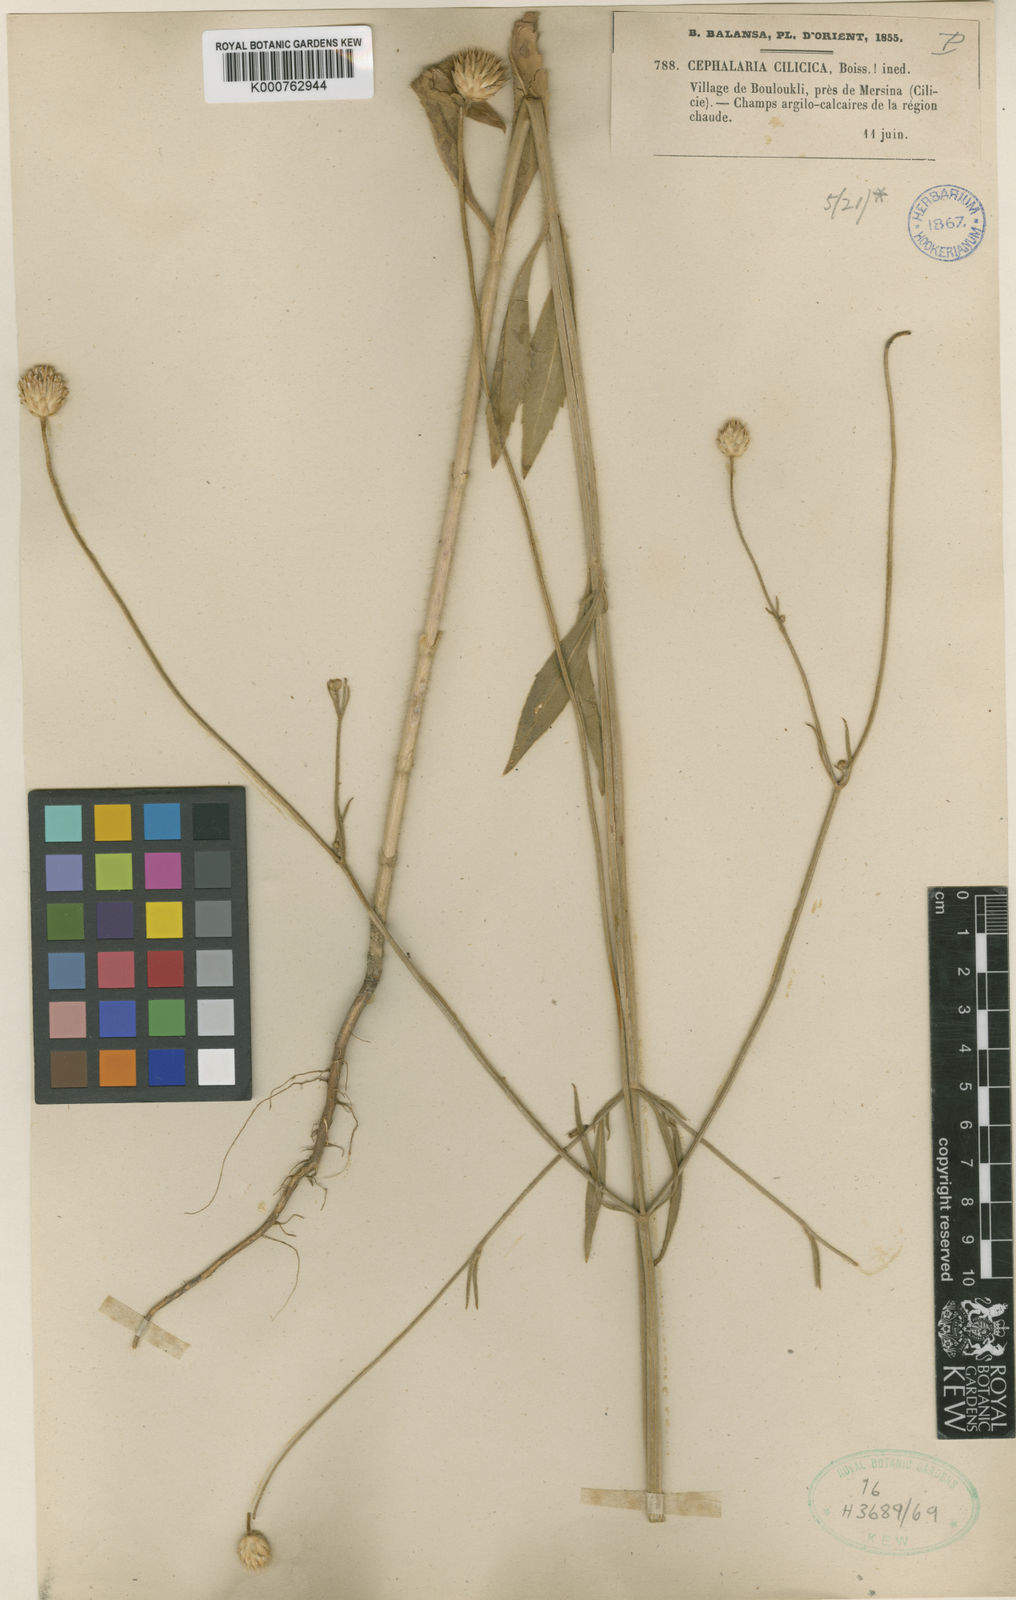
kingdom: Plantae
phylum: Tracheophyta
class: Magnoliopsida
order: Dipsacales
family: Caprifoliaceae
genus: Cephalaria
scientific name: Cephalaria cilicica
